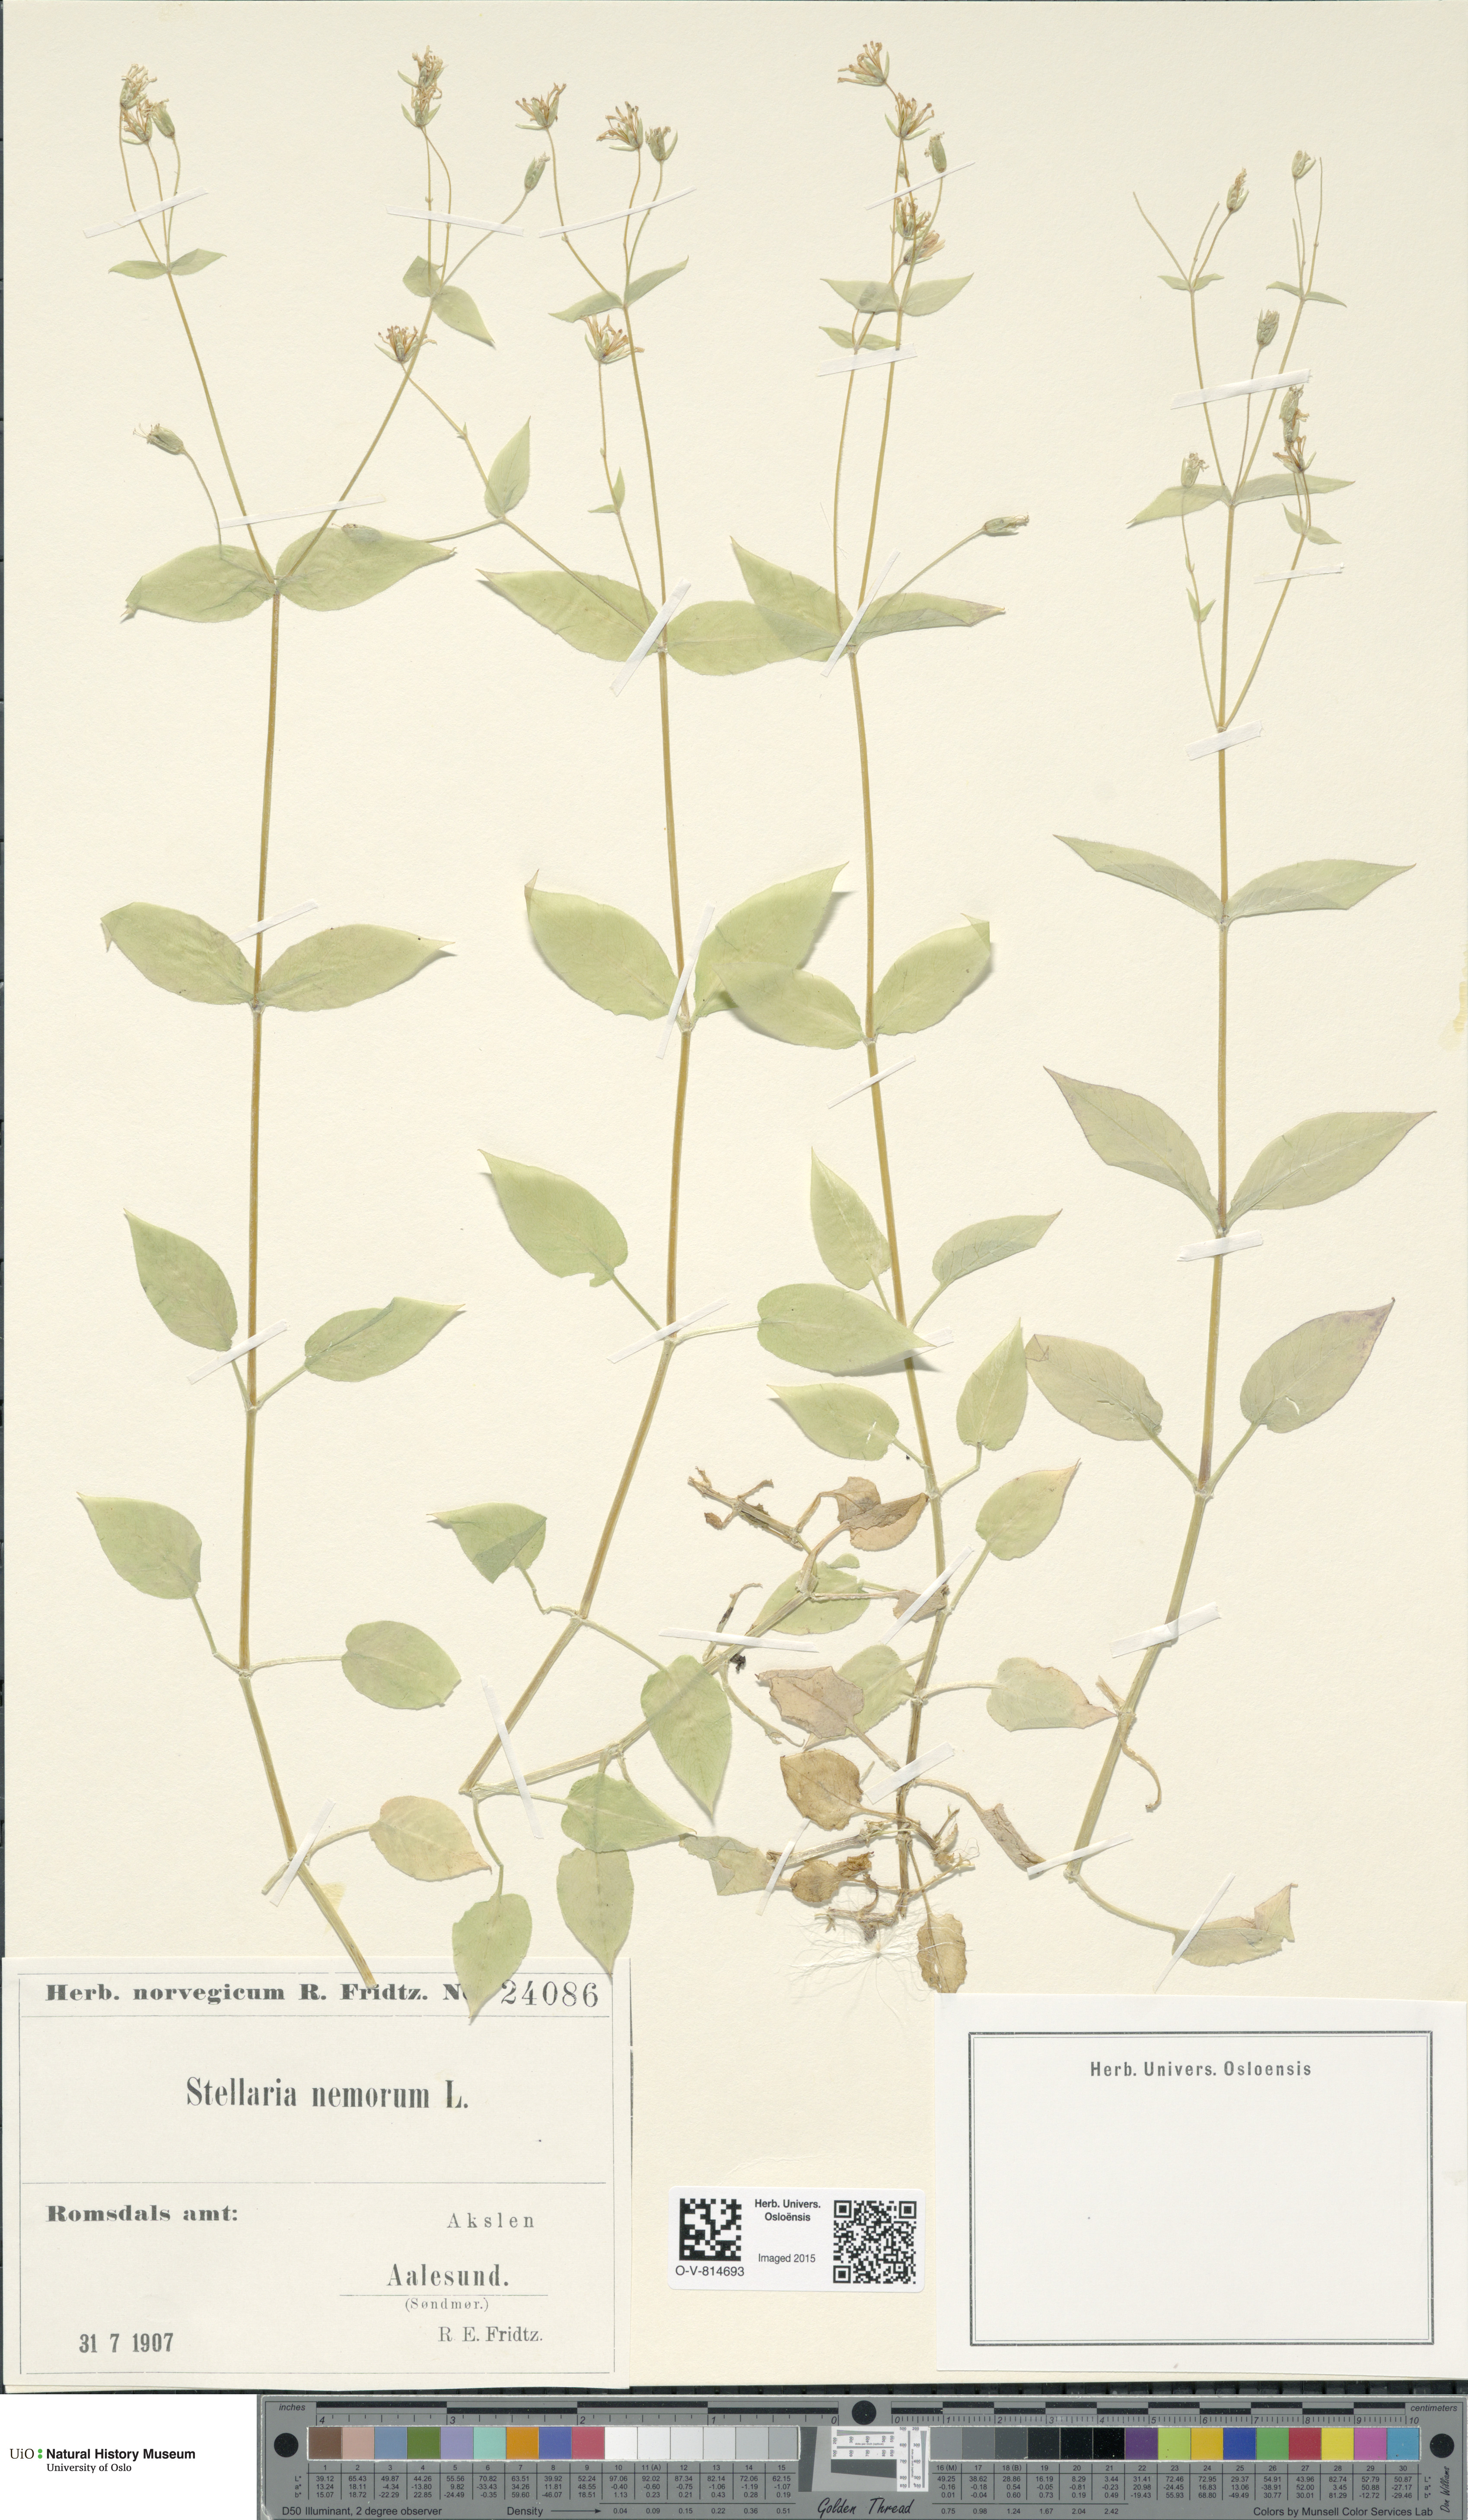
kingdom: Plantae
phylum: Tracheophyta
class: Magnoliopsida
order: Caryophyllales
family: Caryophyllaceae
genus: Stellaria
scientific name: Stellaria nemorum
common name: Wood stitchwort
